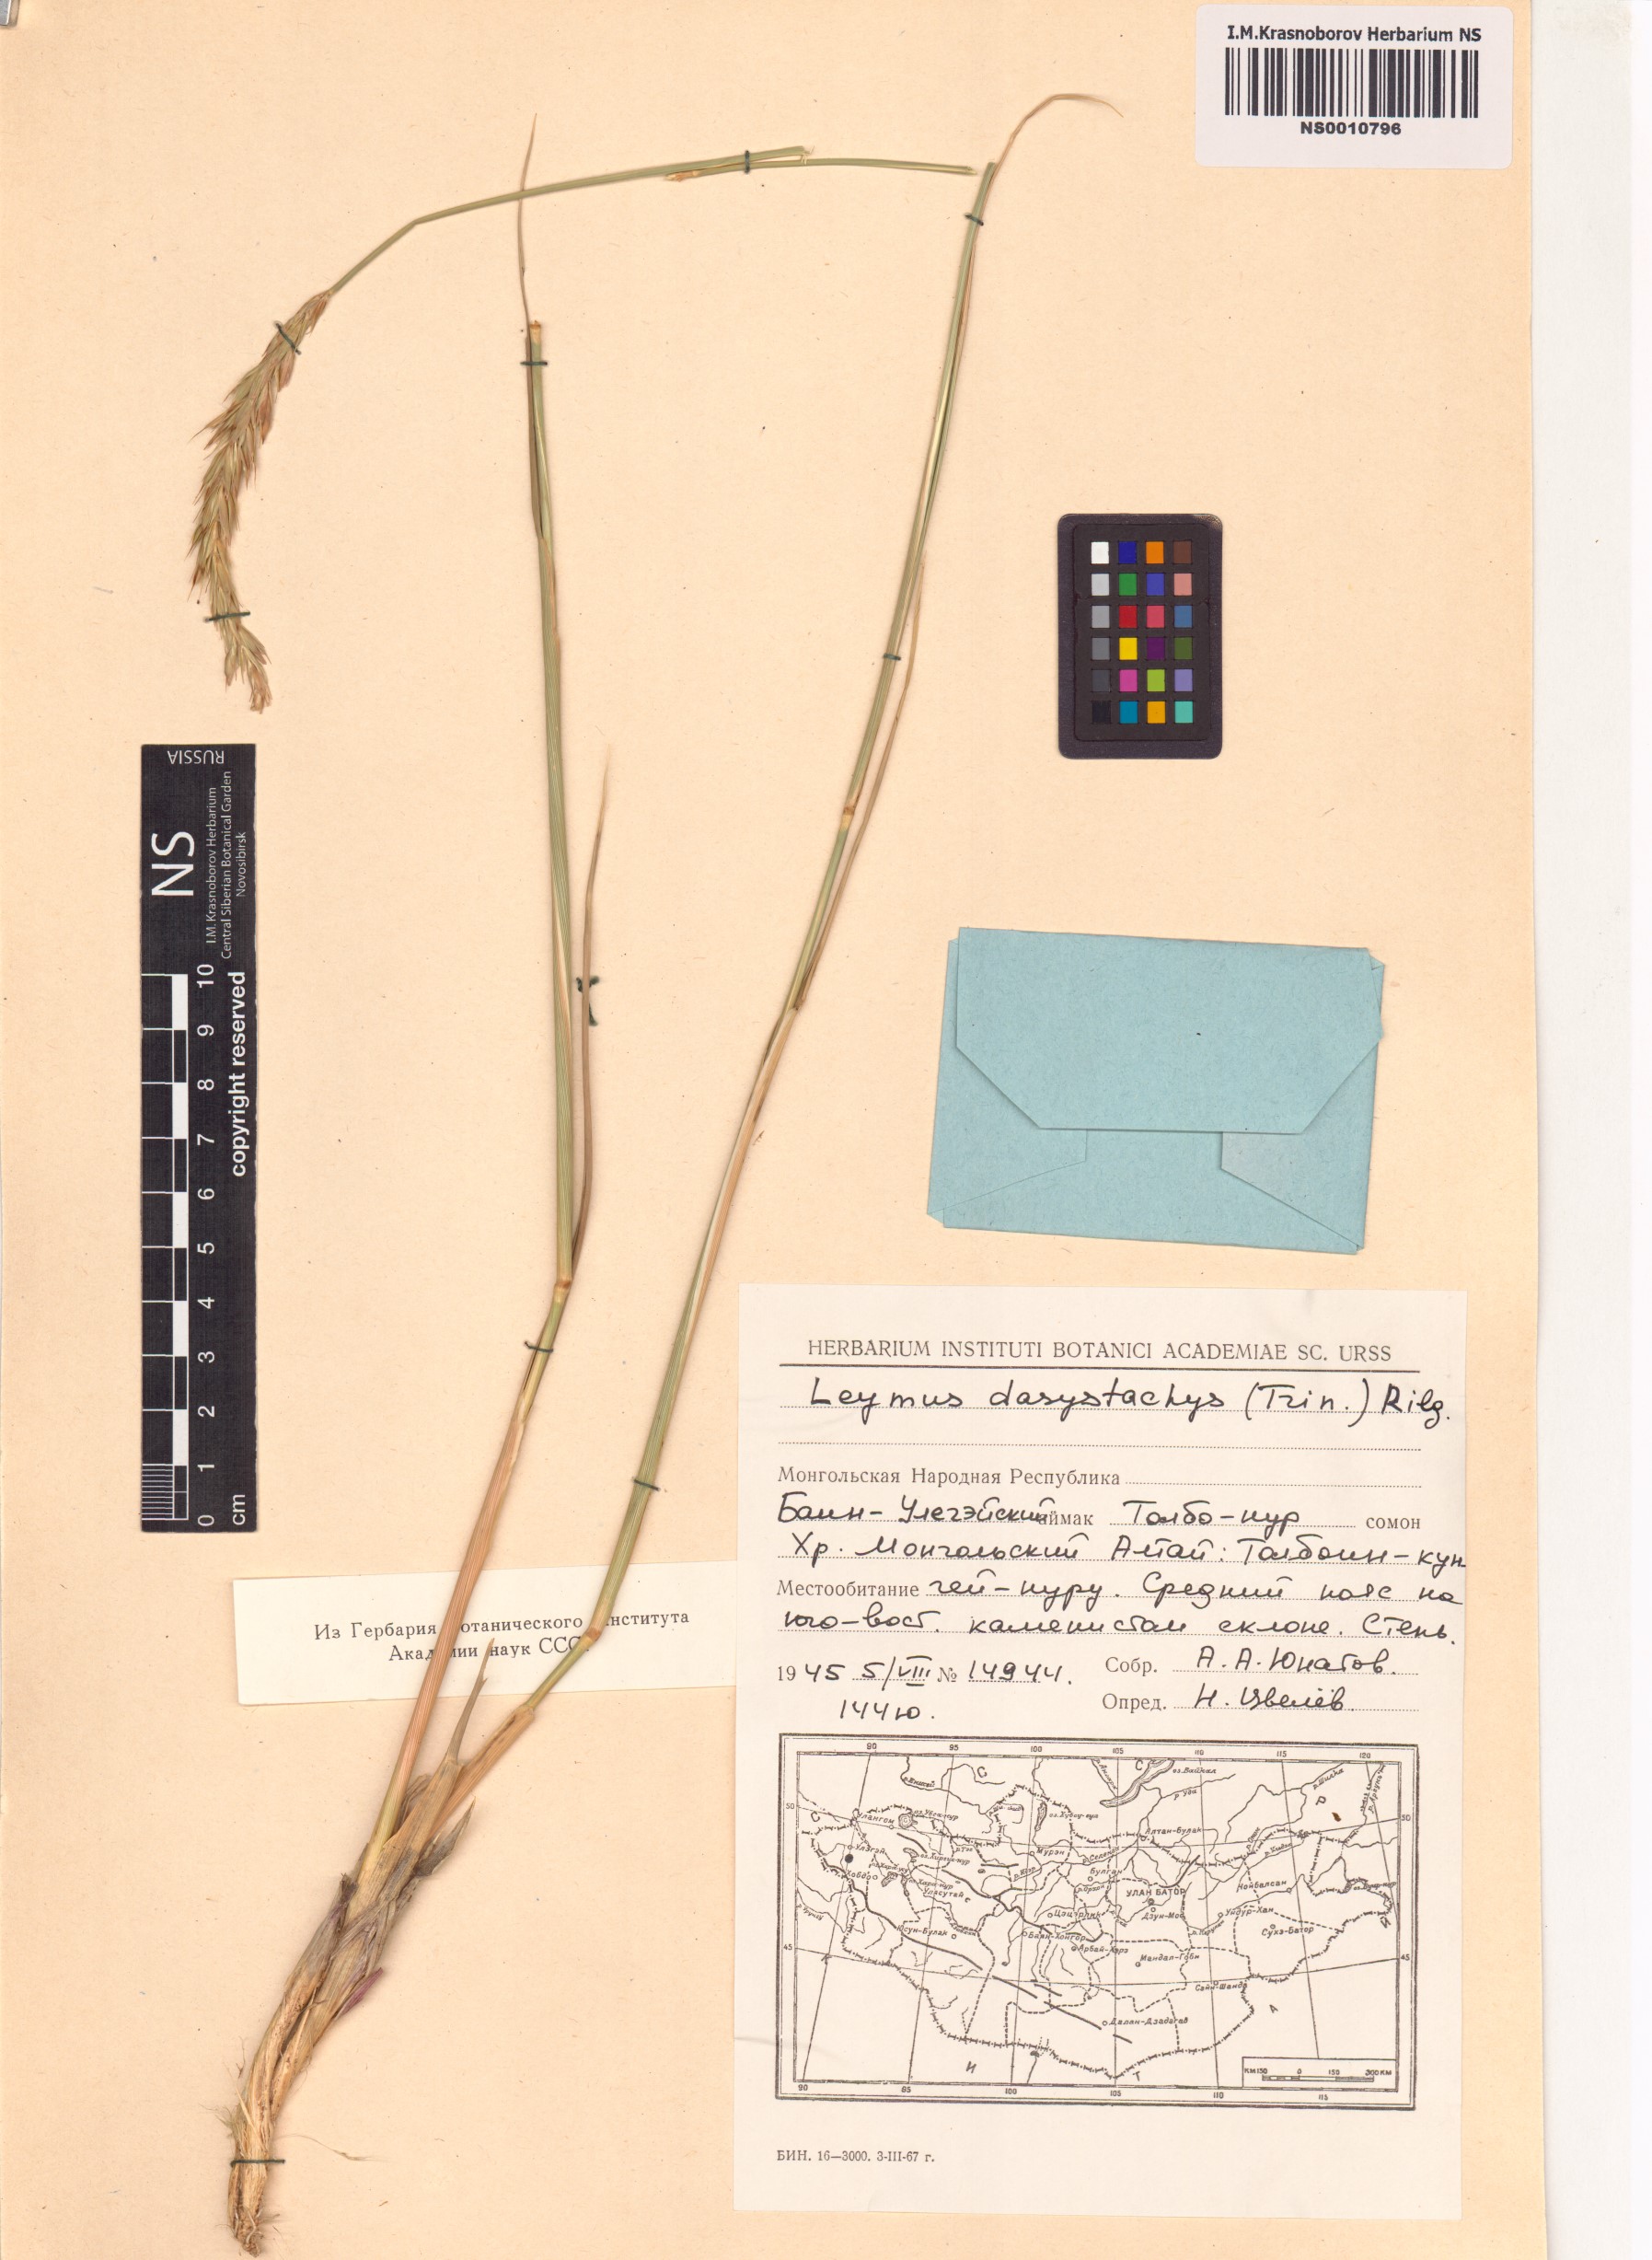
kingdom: Plantae
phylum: Tracheophyta
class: Liliopsida
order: Poales
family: Poaceae
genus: Leymus
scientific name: Leymus secalinus
